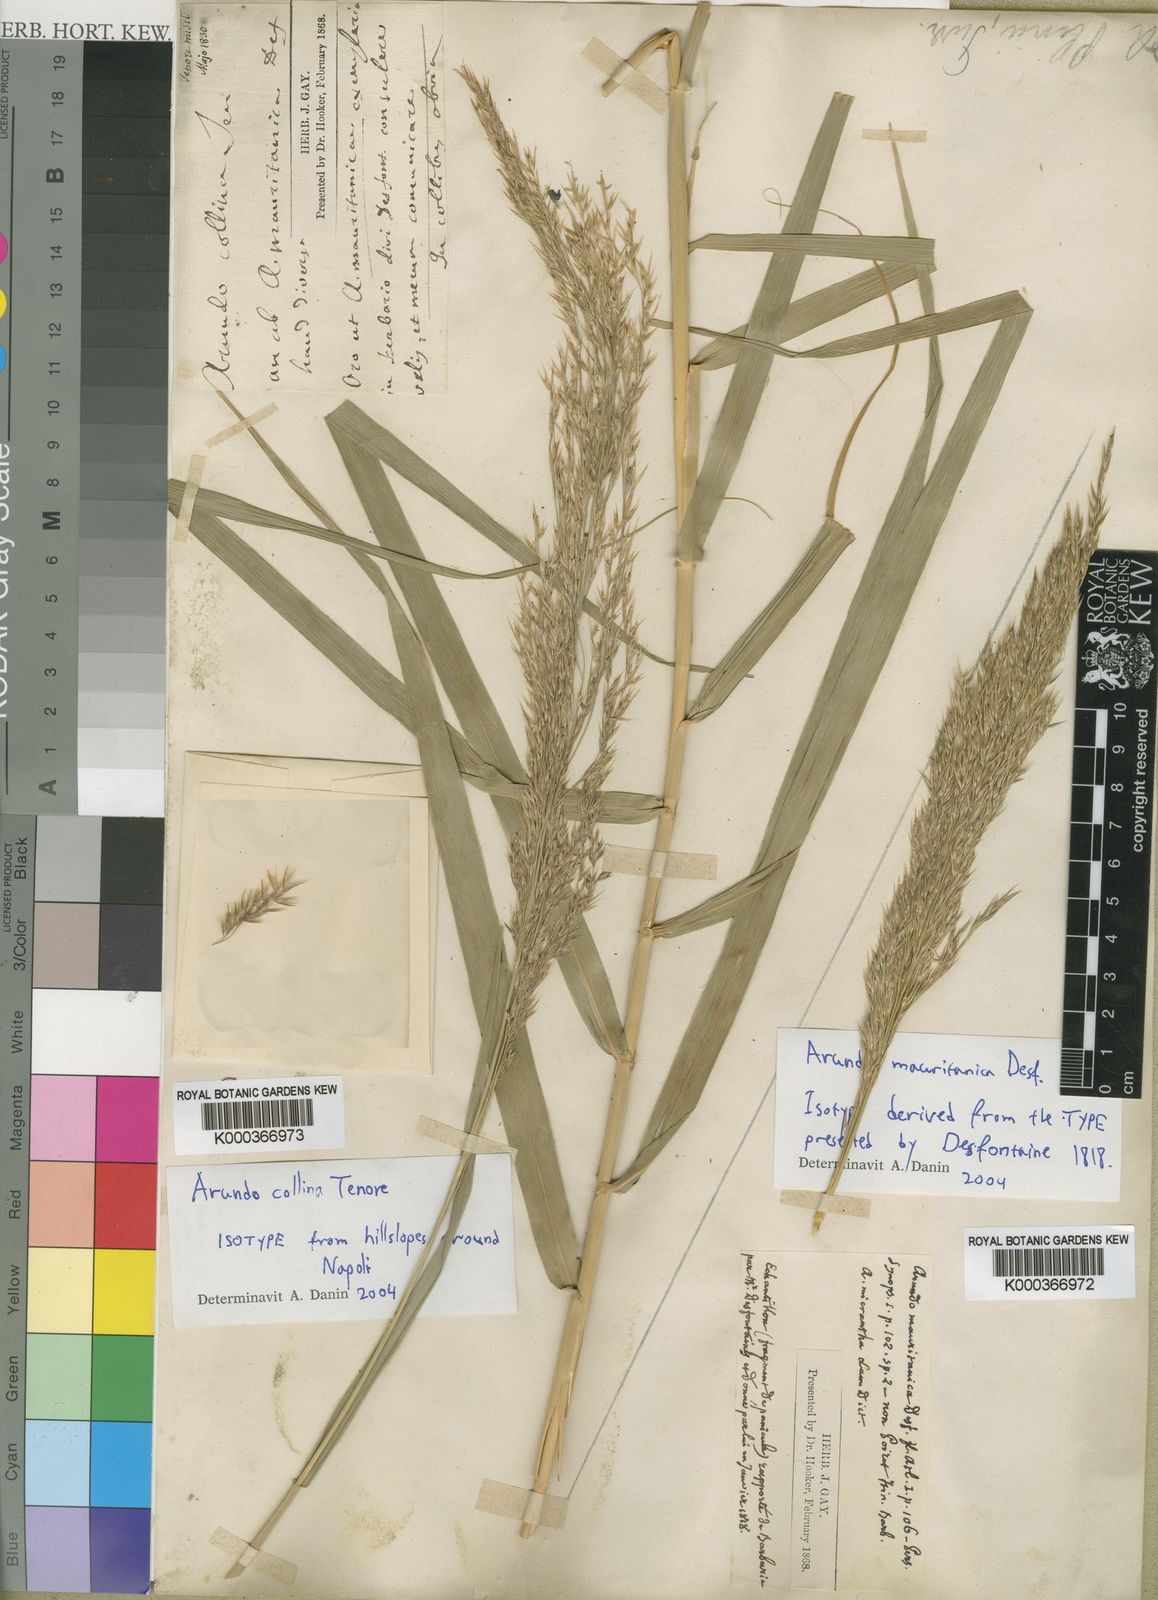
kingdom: Plantae
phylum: Tracheophyta
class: Liliopsida
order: Poales
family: Poaceae
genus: Arundo
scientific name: Arundo plinii
